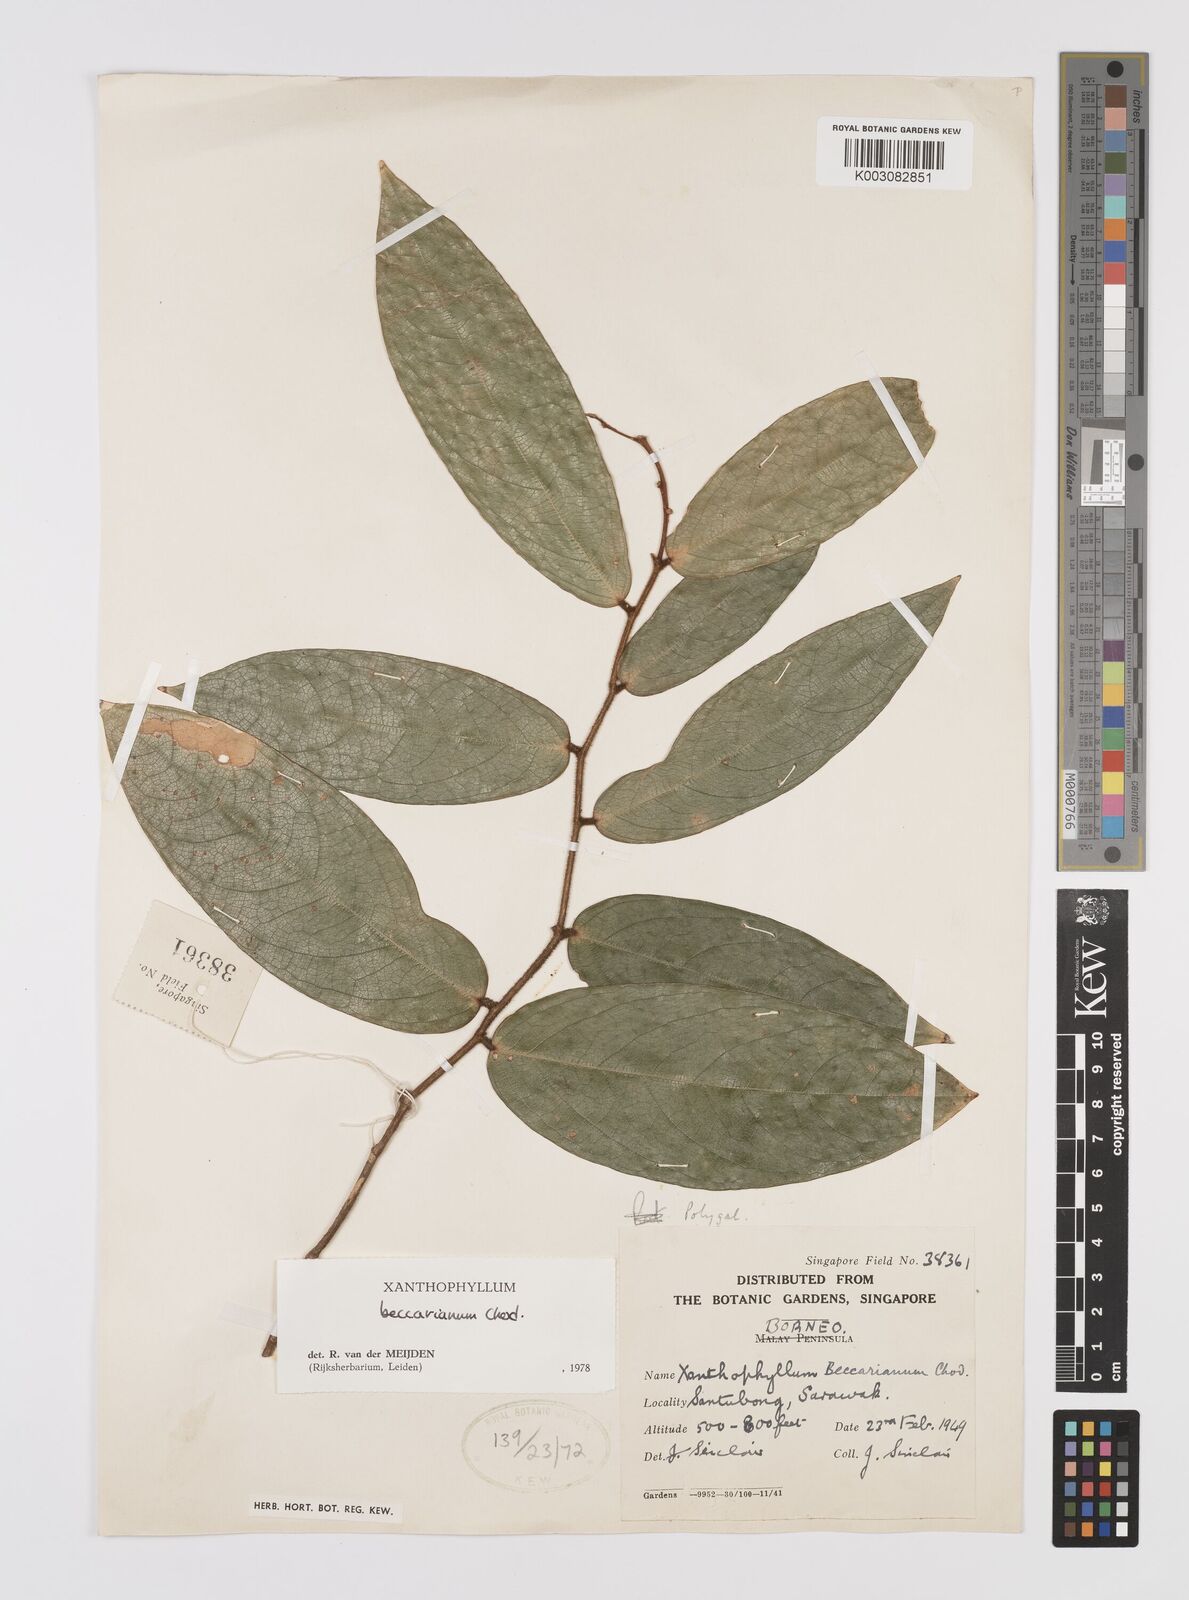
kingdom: Plantae
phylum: Tracheophyta
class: Magnoliopsida
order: Fabales
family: Polygalaceae
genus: Xanthophyllum
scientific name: Xanthophyllum beccarianum
